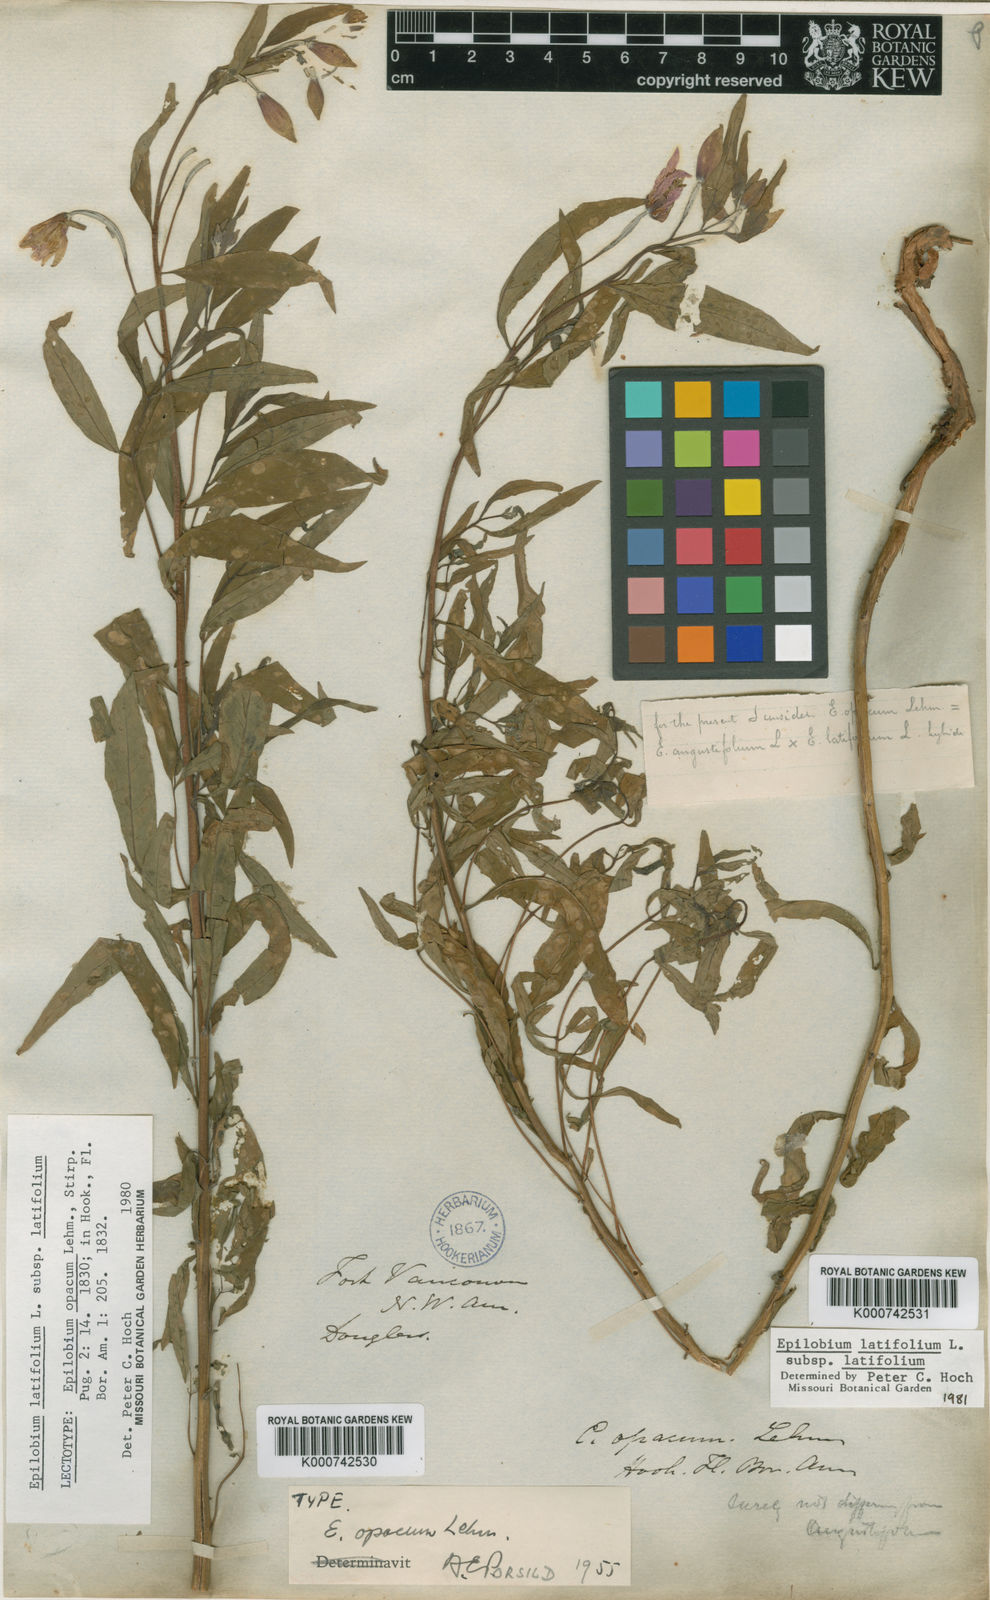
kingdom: Plantae
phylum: Tracheophyta
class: Magnoliopsida
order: Myrtales
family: Onagraceae
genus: Chamaenerion
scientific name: Chamaenerion latifolium
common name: Dwarf fireweed
